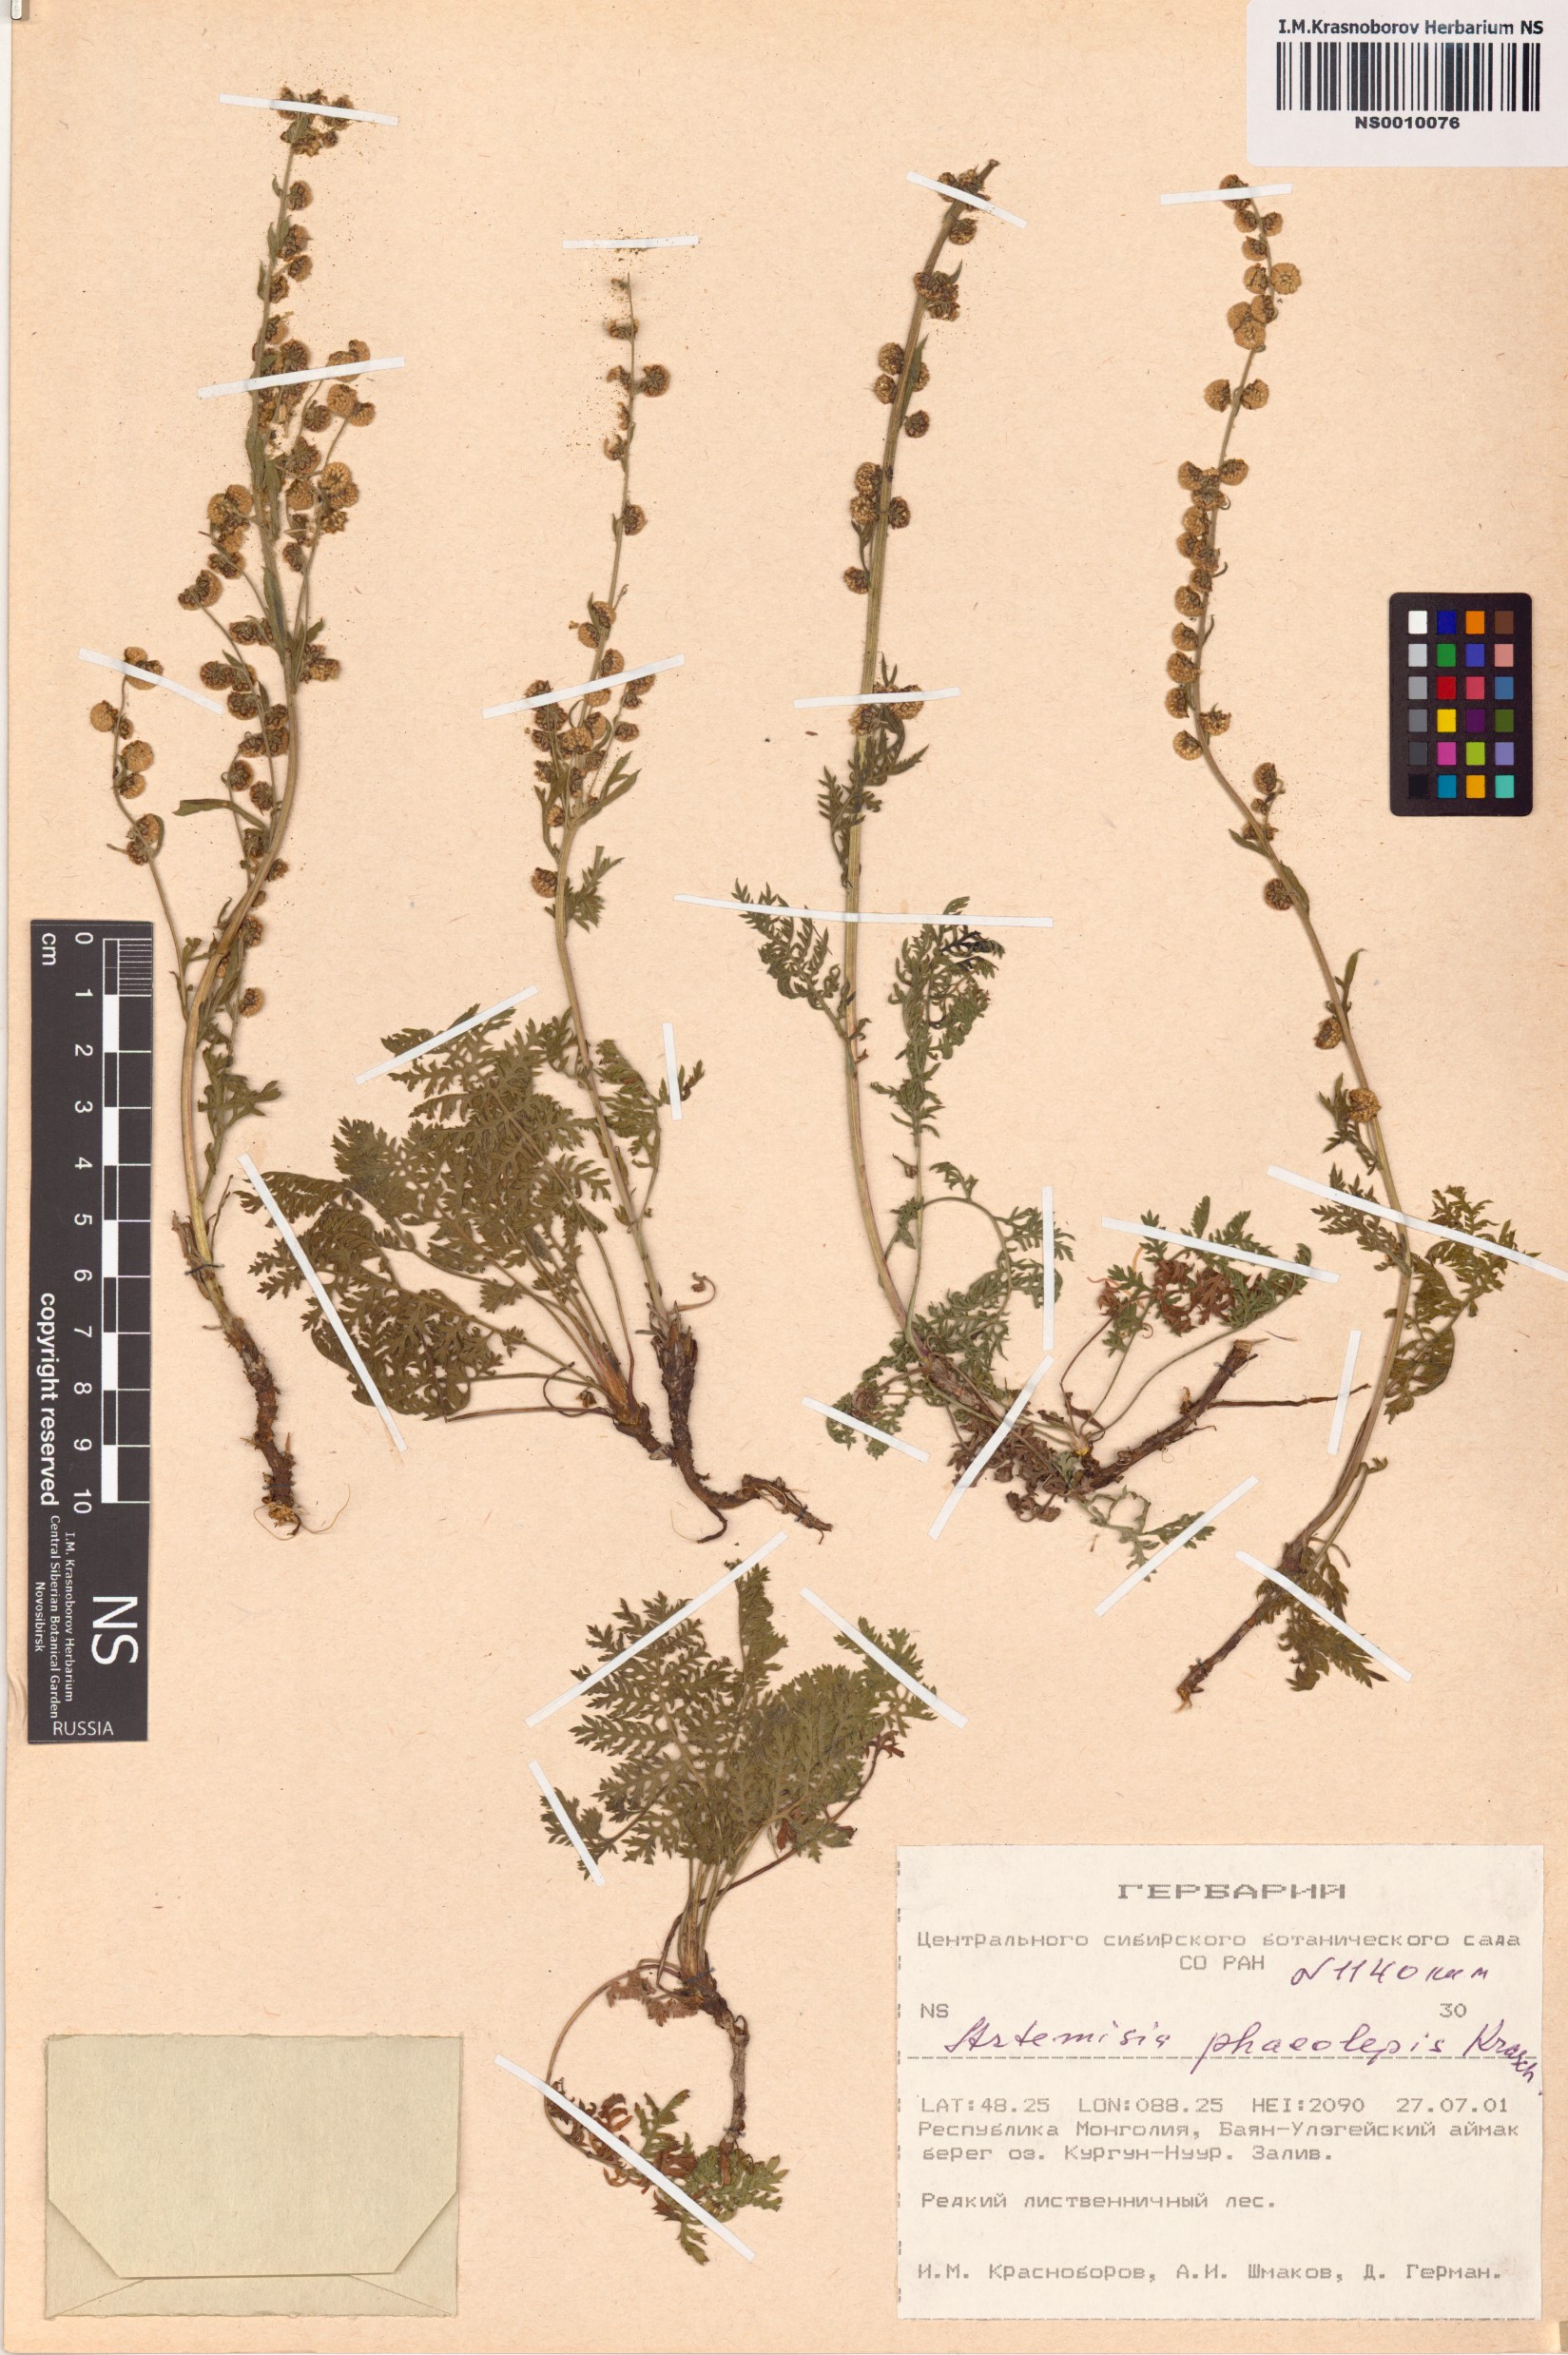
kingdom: Plantae
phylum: Tracheophyta
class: Magnoliopsida
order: Asterales
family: Asteraceae
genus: Artemisia
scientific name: Artemisia phaeolepis
